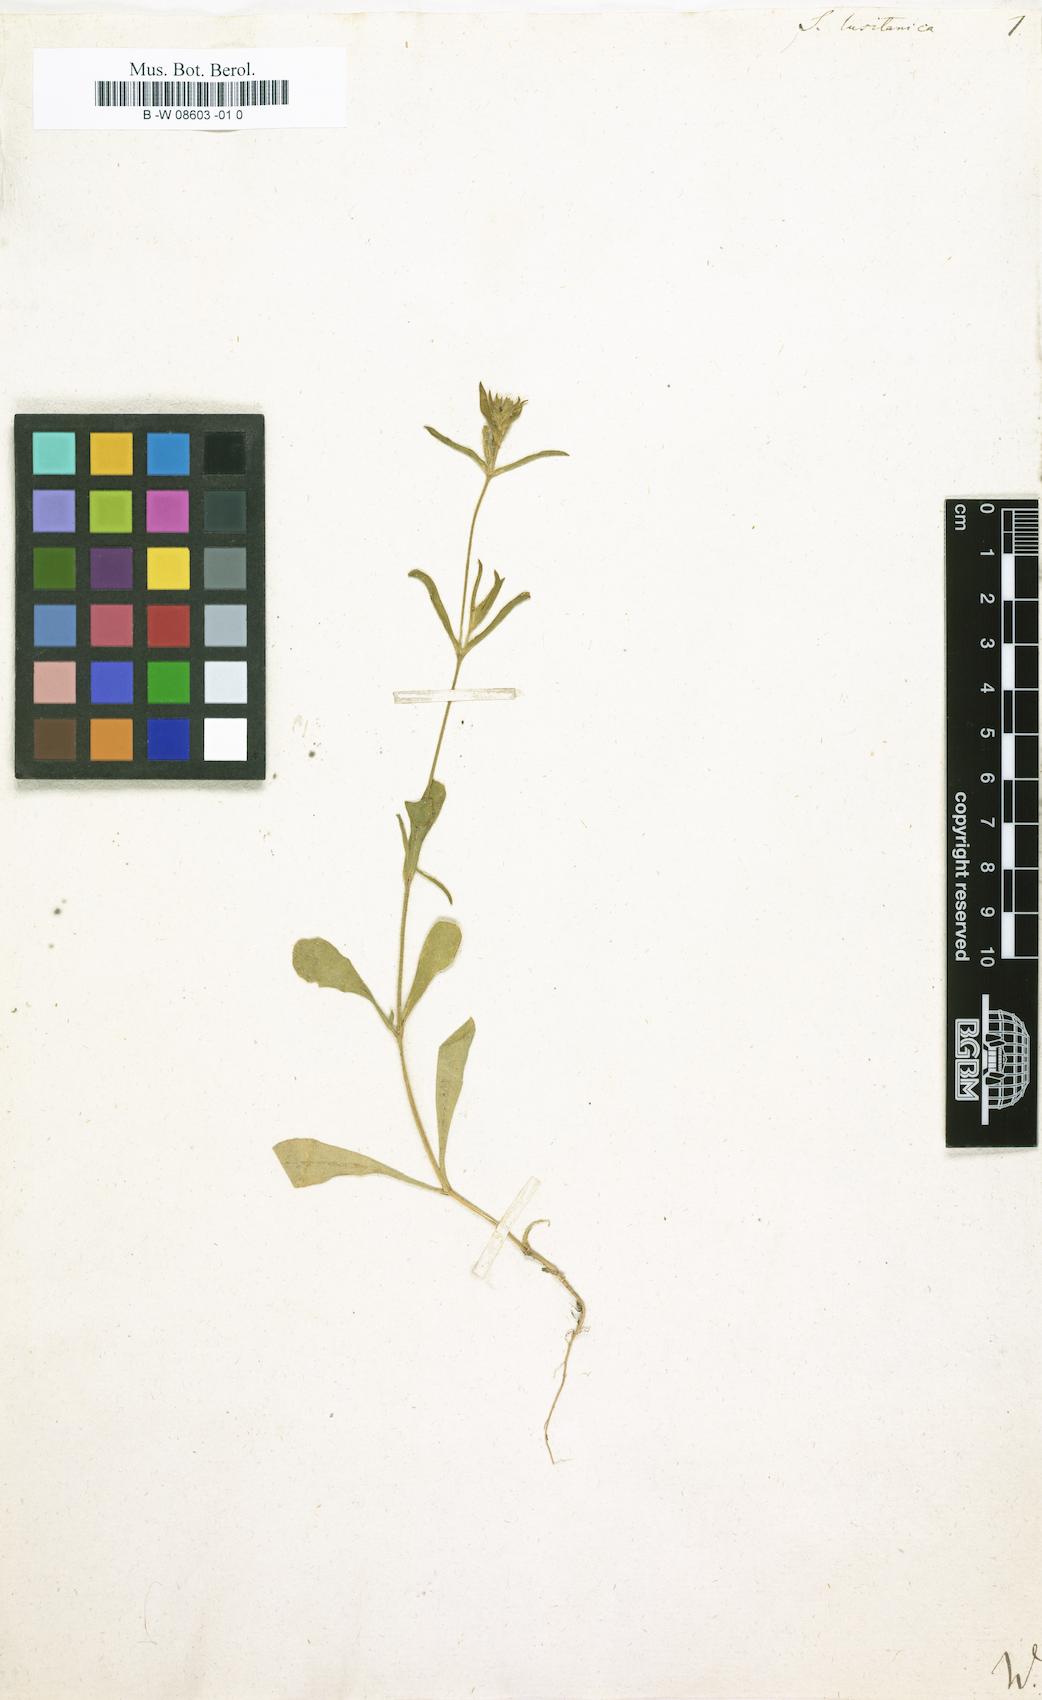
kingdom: Plantae
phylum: Tracheophyta
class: Magnoliopsida
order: Caryophyllales
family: Caryophyllaceae
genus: Silene
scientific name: Silene gallica
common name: Small-flowered catchfly
